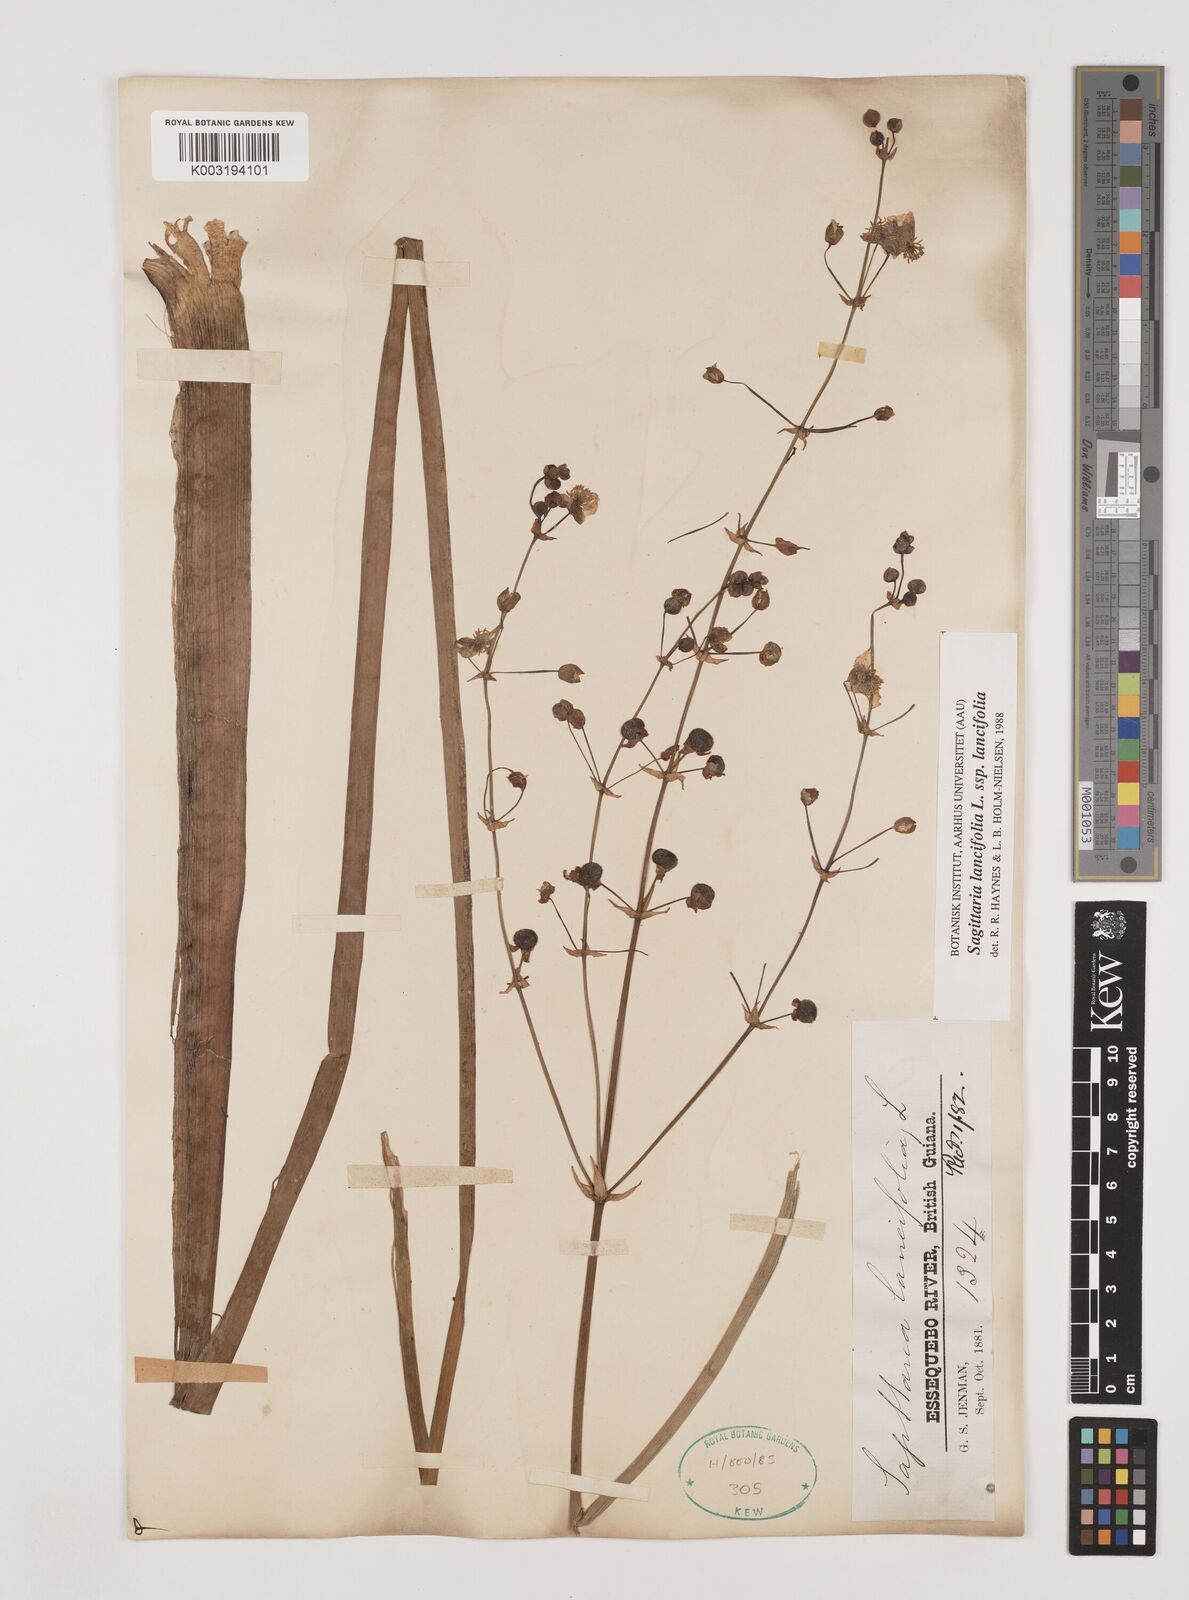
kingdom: Plantae
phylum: Tracheophyta
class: Liliopsida
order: Alismatales
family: Alismataceae
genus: Sagittaria
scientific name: Sagittaria lancifolia
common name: Lance-leaf arrowhead
